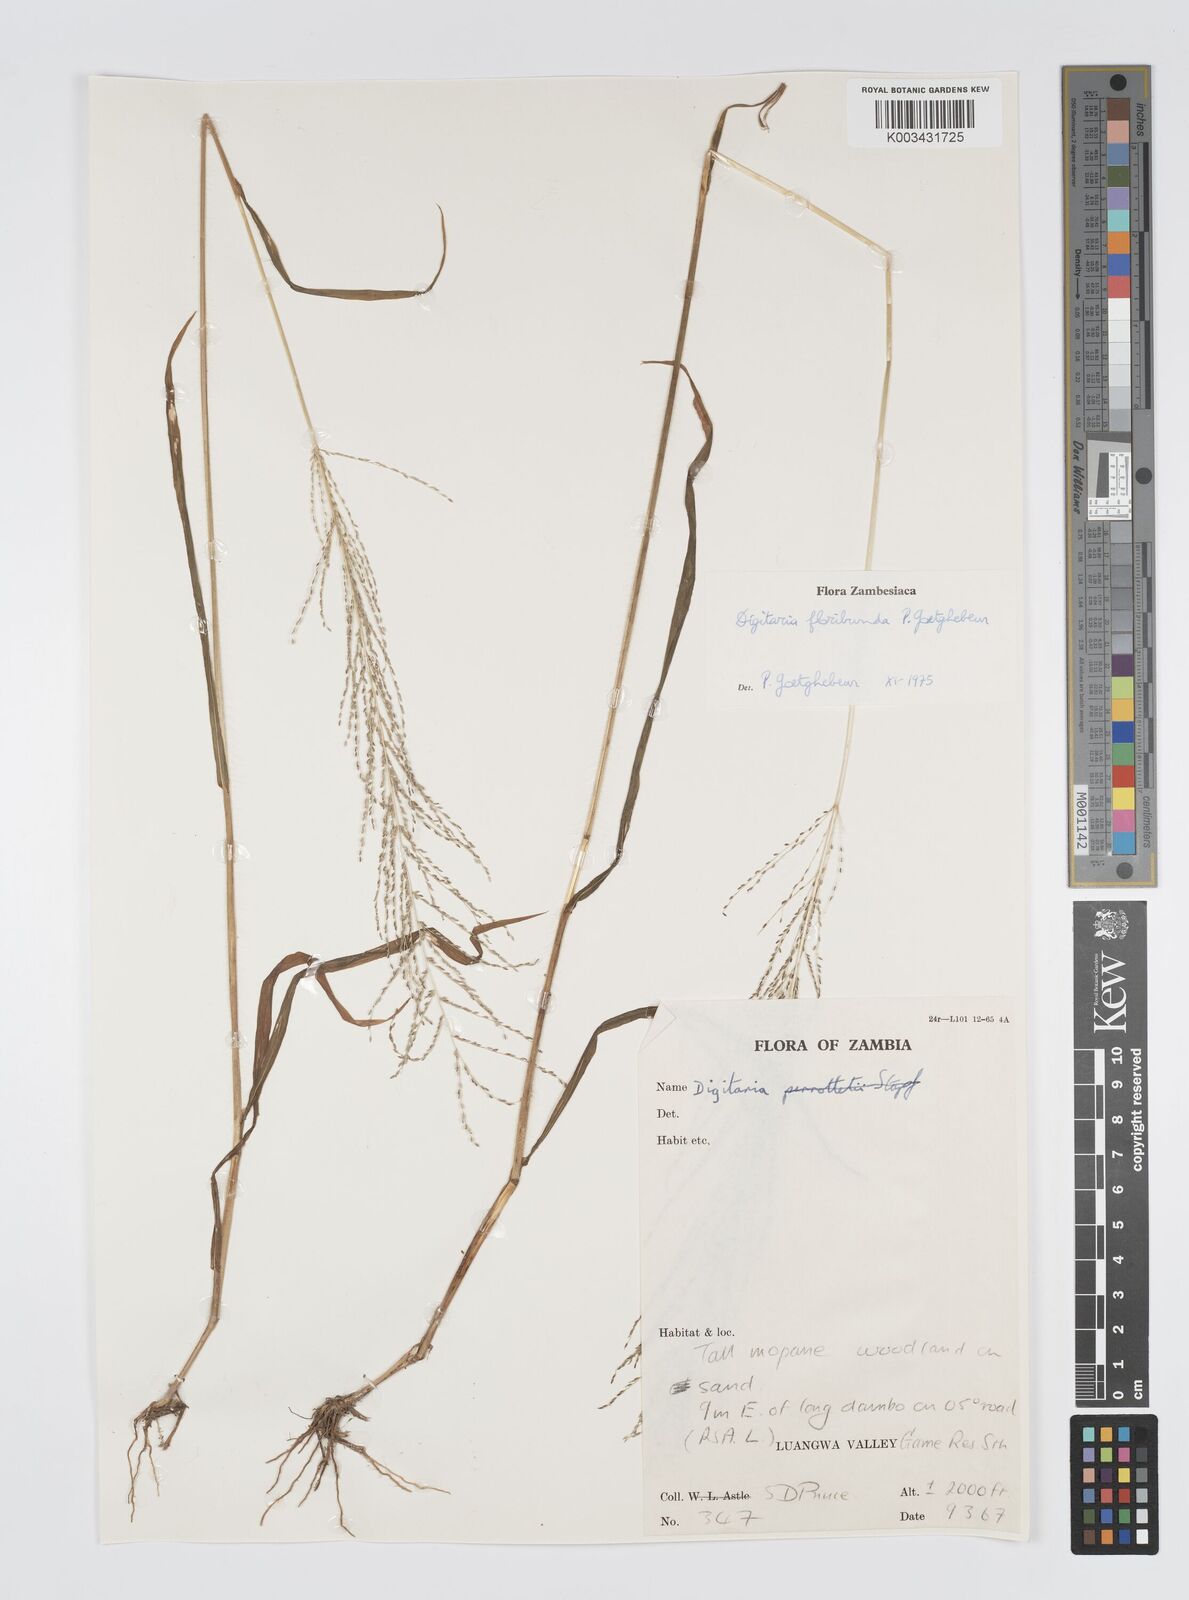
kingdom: Plantae
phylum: Tracheophyta
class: Liliopsida
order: Poales
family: Poaceae
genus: Digitaria
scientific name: Digitaria perrottetii
